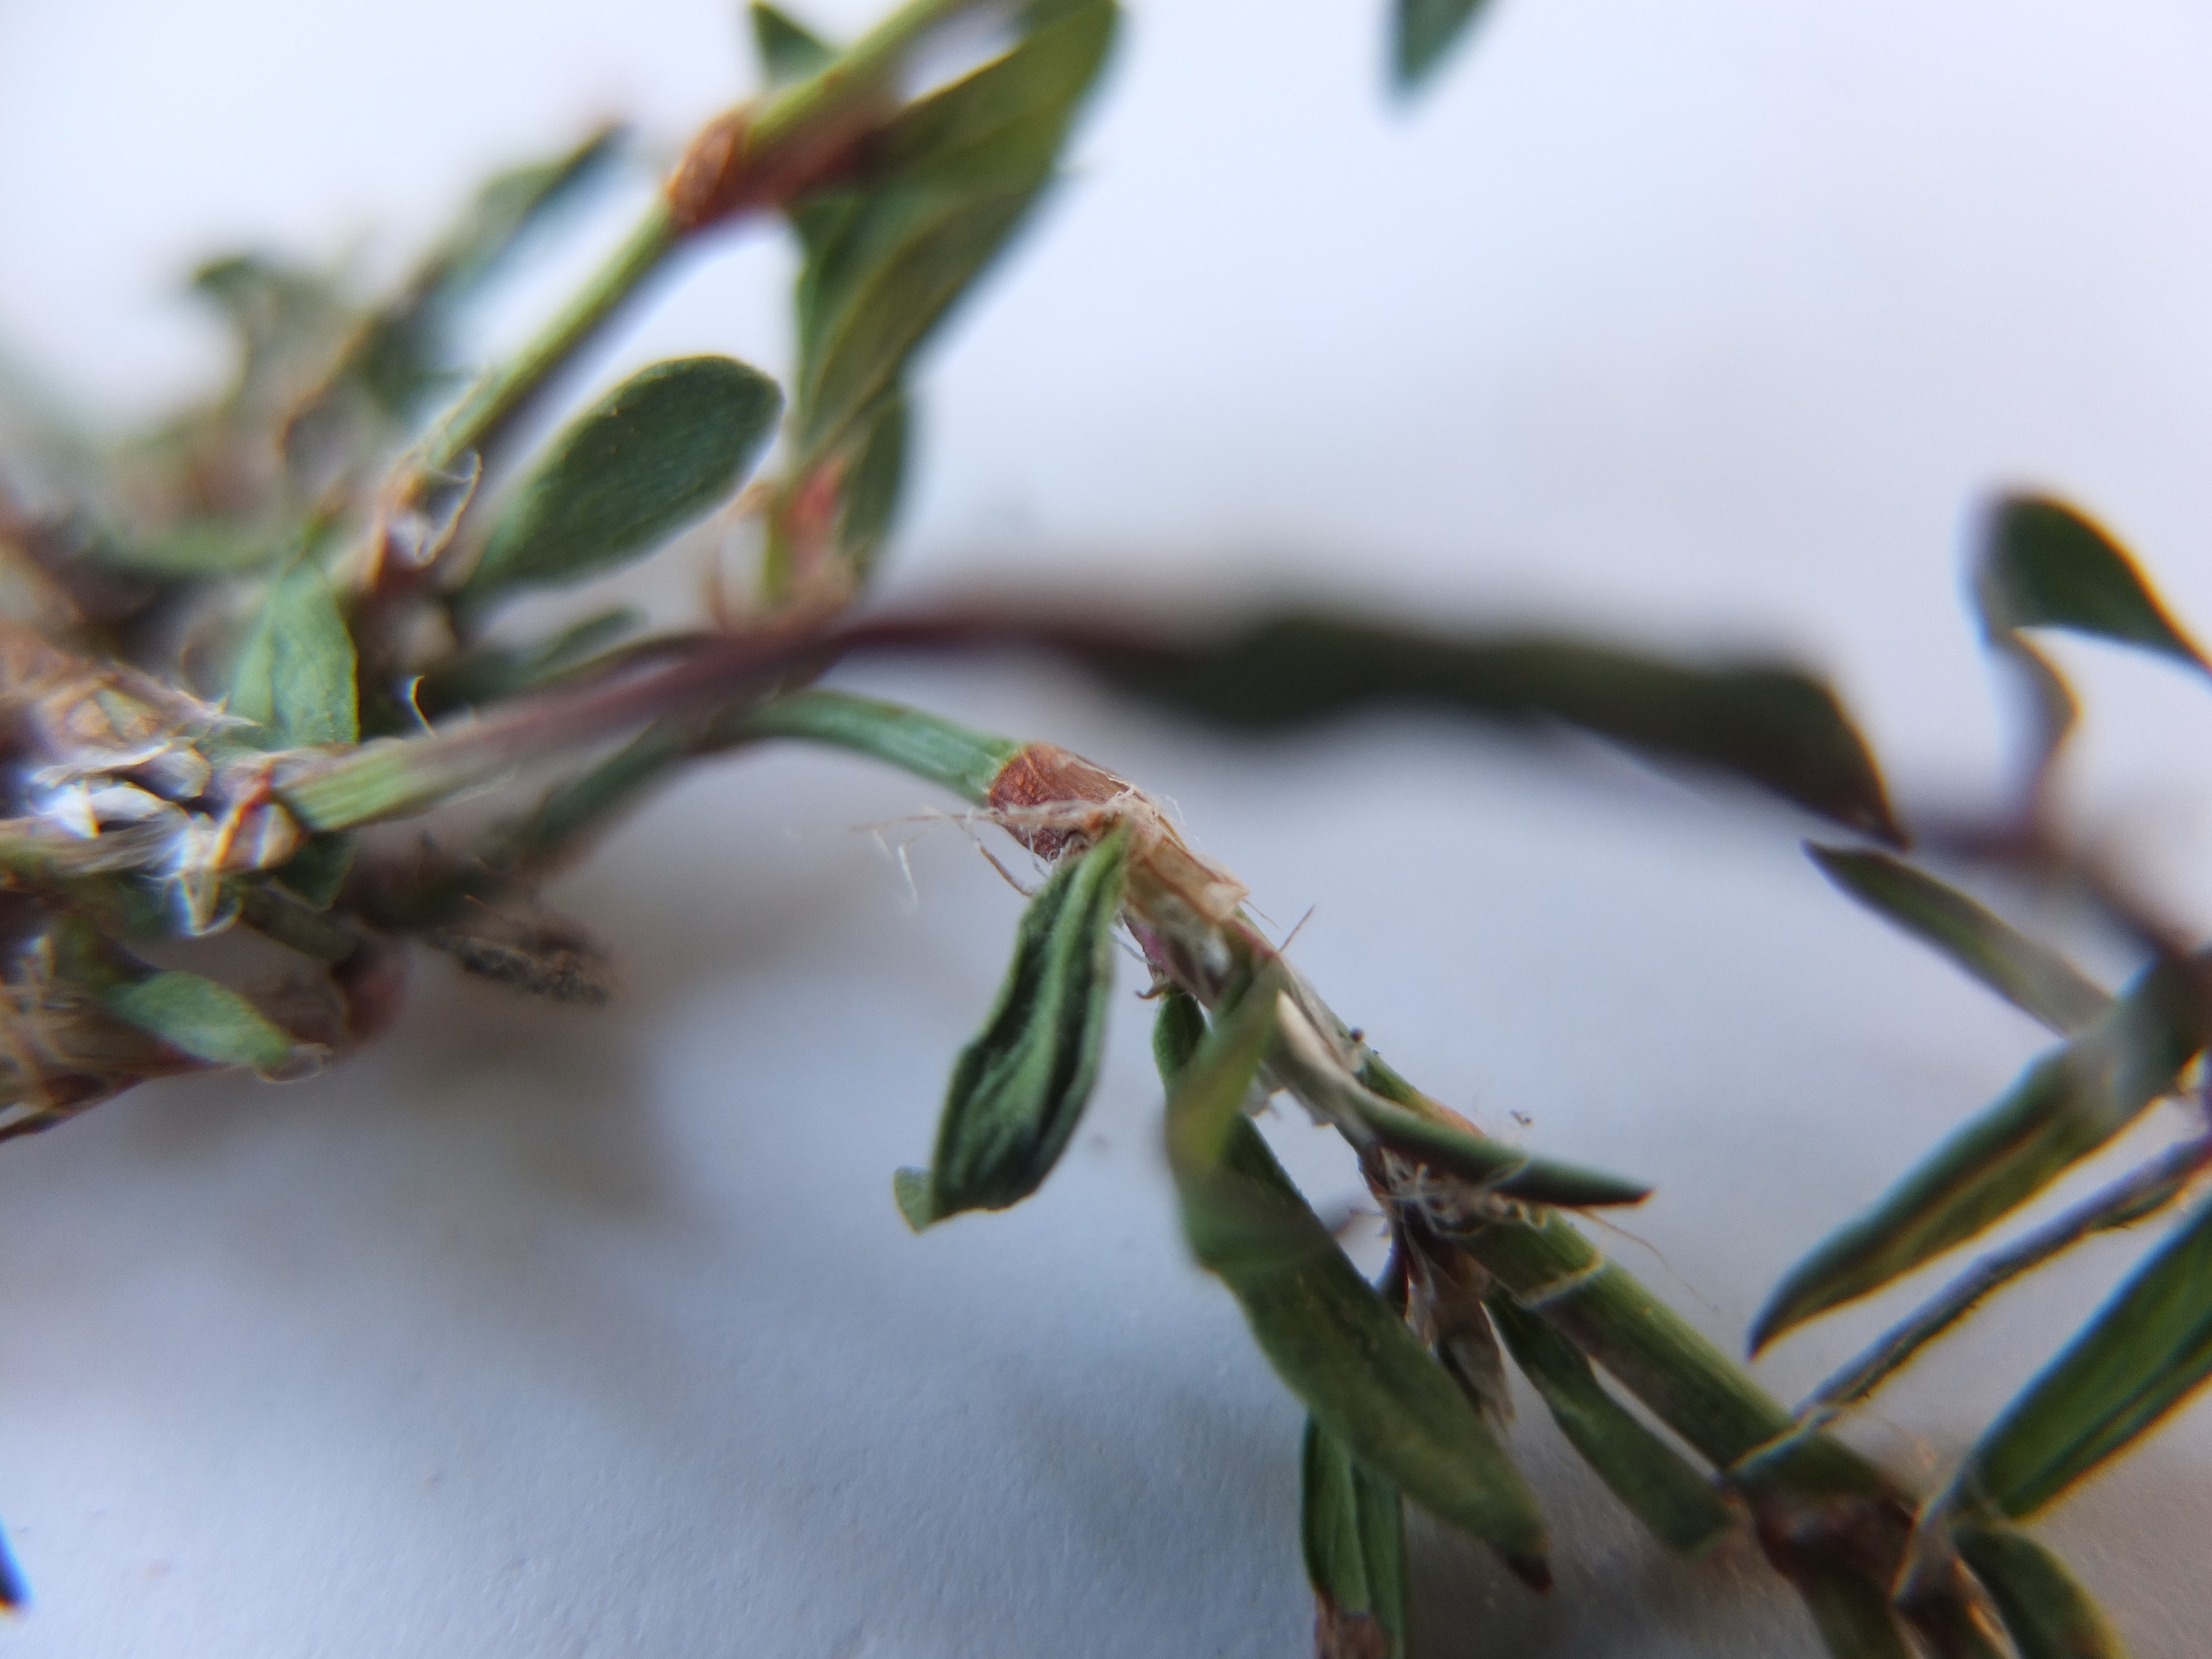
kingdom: Plantae
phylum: Tracheophyta
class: Magnoliopsida
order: Caryophyllales
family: Polygonaceae
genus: Polygonum
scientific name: Polygonum aviculare
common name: Spidsbladet vej-pileurt
